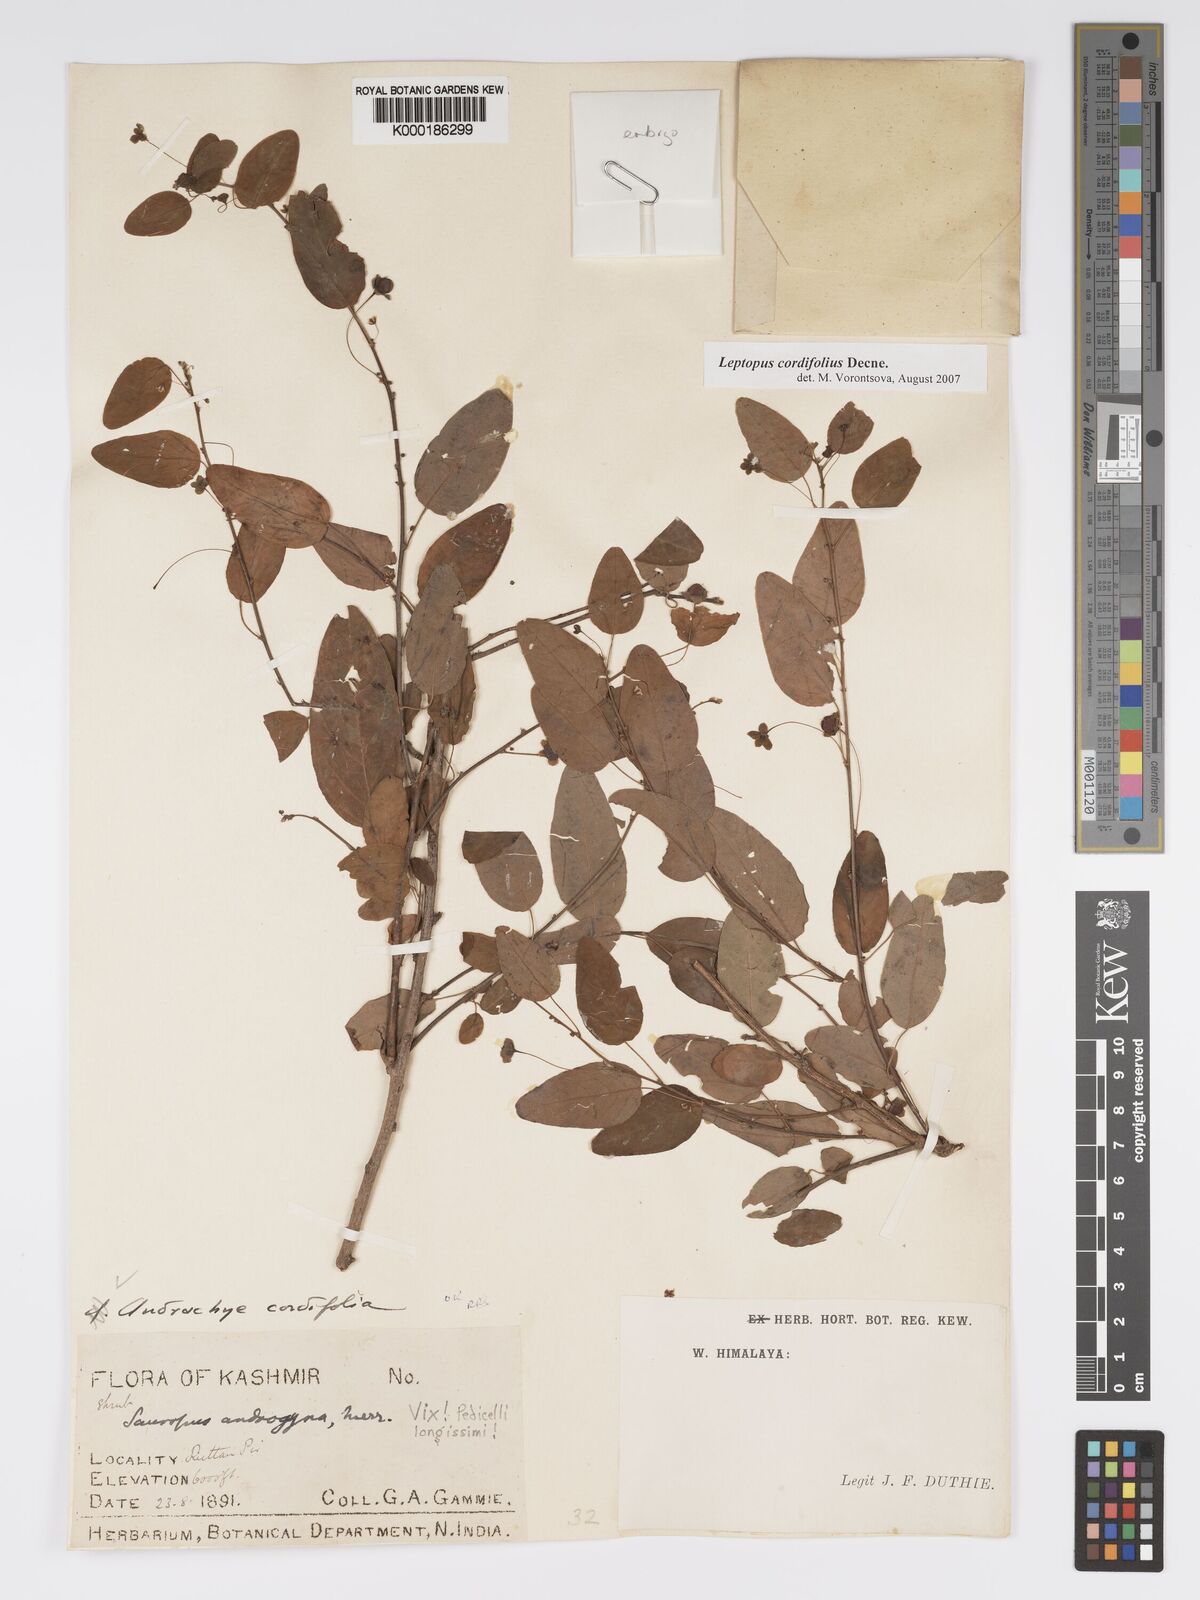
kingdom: Plantae
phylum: Tracheophyta
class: Magnoliopsida
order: Malpighiales
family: Phyllanthaceae
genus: Leptopus
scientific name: Leptopus cordifolius
